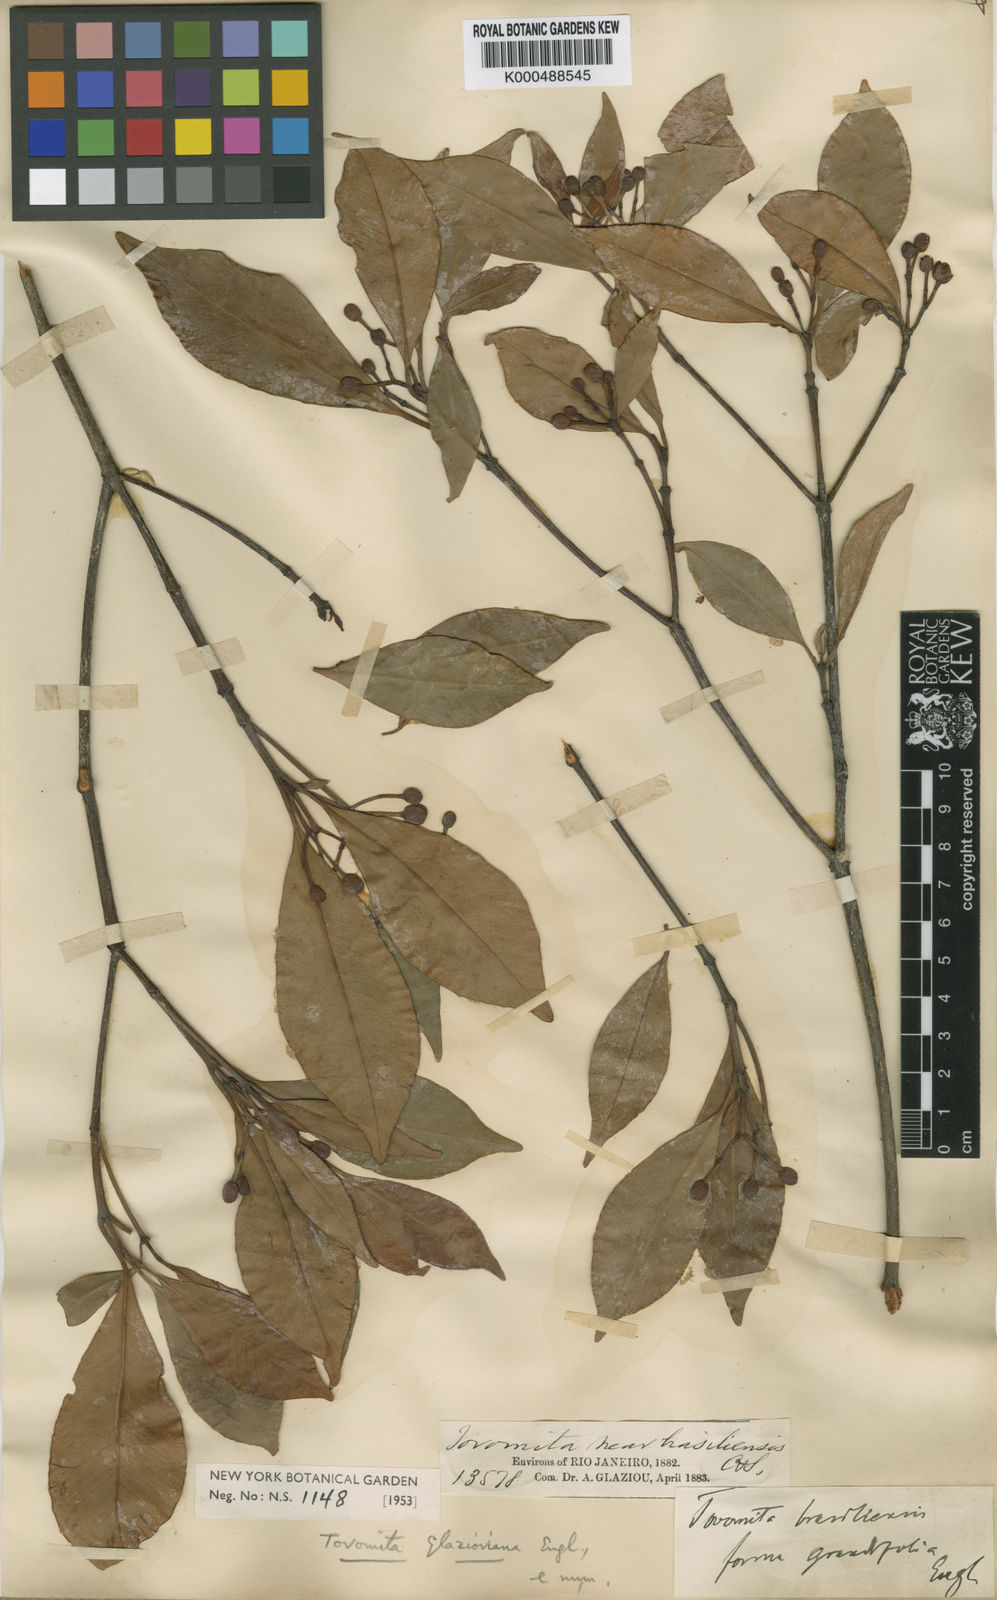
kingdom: Plantae
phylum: Tracheophyta
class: Magnoliopsida
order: Malpighiales
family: Clusiaceae
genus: Tovomita
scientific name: Tovomita glazioviana
